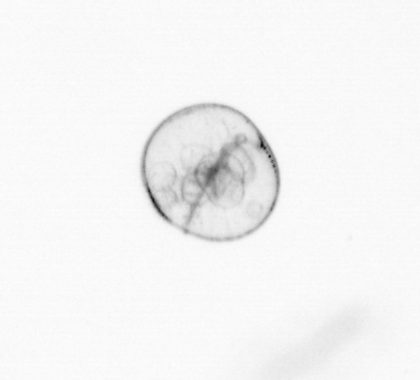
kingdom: Chromista
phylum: Myzozoa
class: Dinophyceae
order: Noctilucales
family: Noctilucaceae
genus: Noctiluca
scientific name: Noctiluca scintillans
